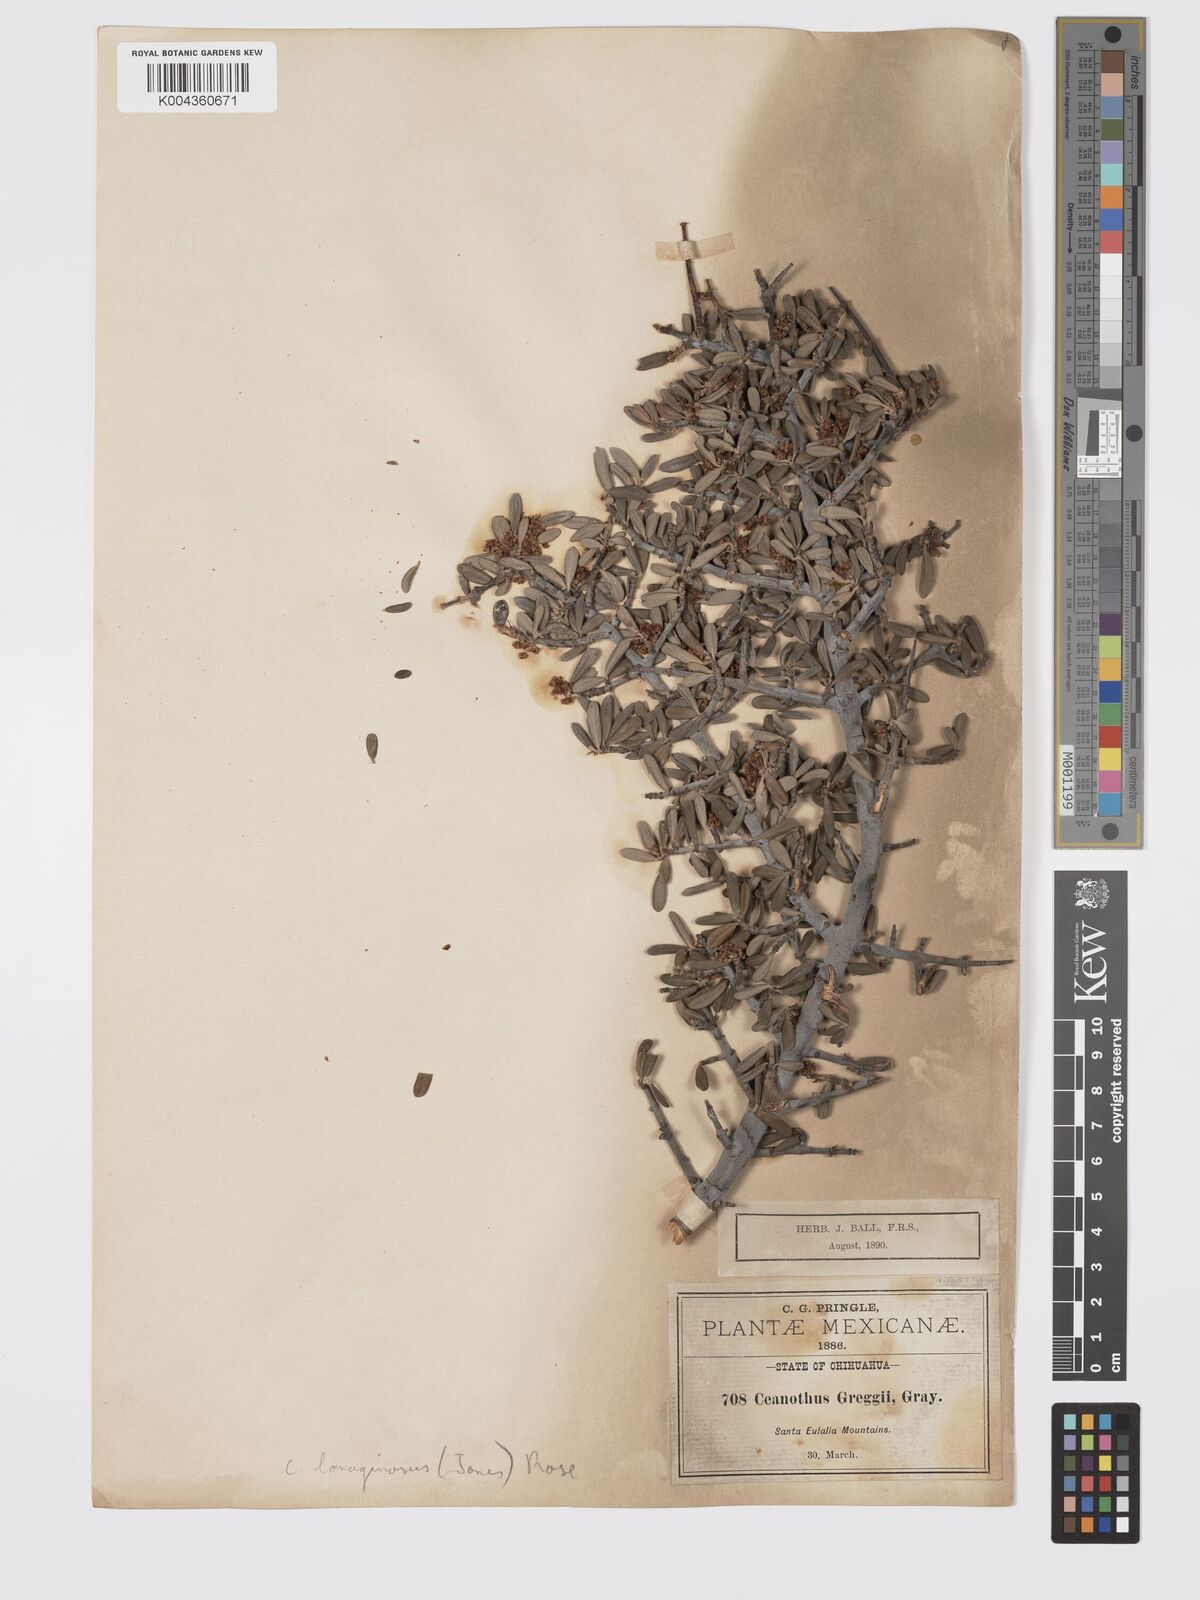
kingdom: Plantae
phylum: Tracheophyta
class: Magnoliopsida
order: Rosales
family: Rhamnaceae
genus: Ceanothus
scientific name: Ceanothus lanuginosus
